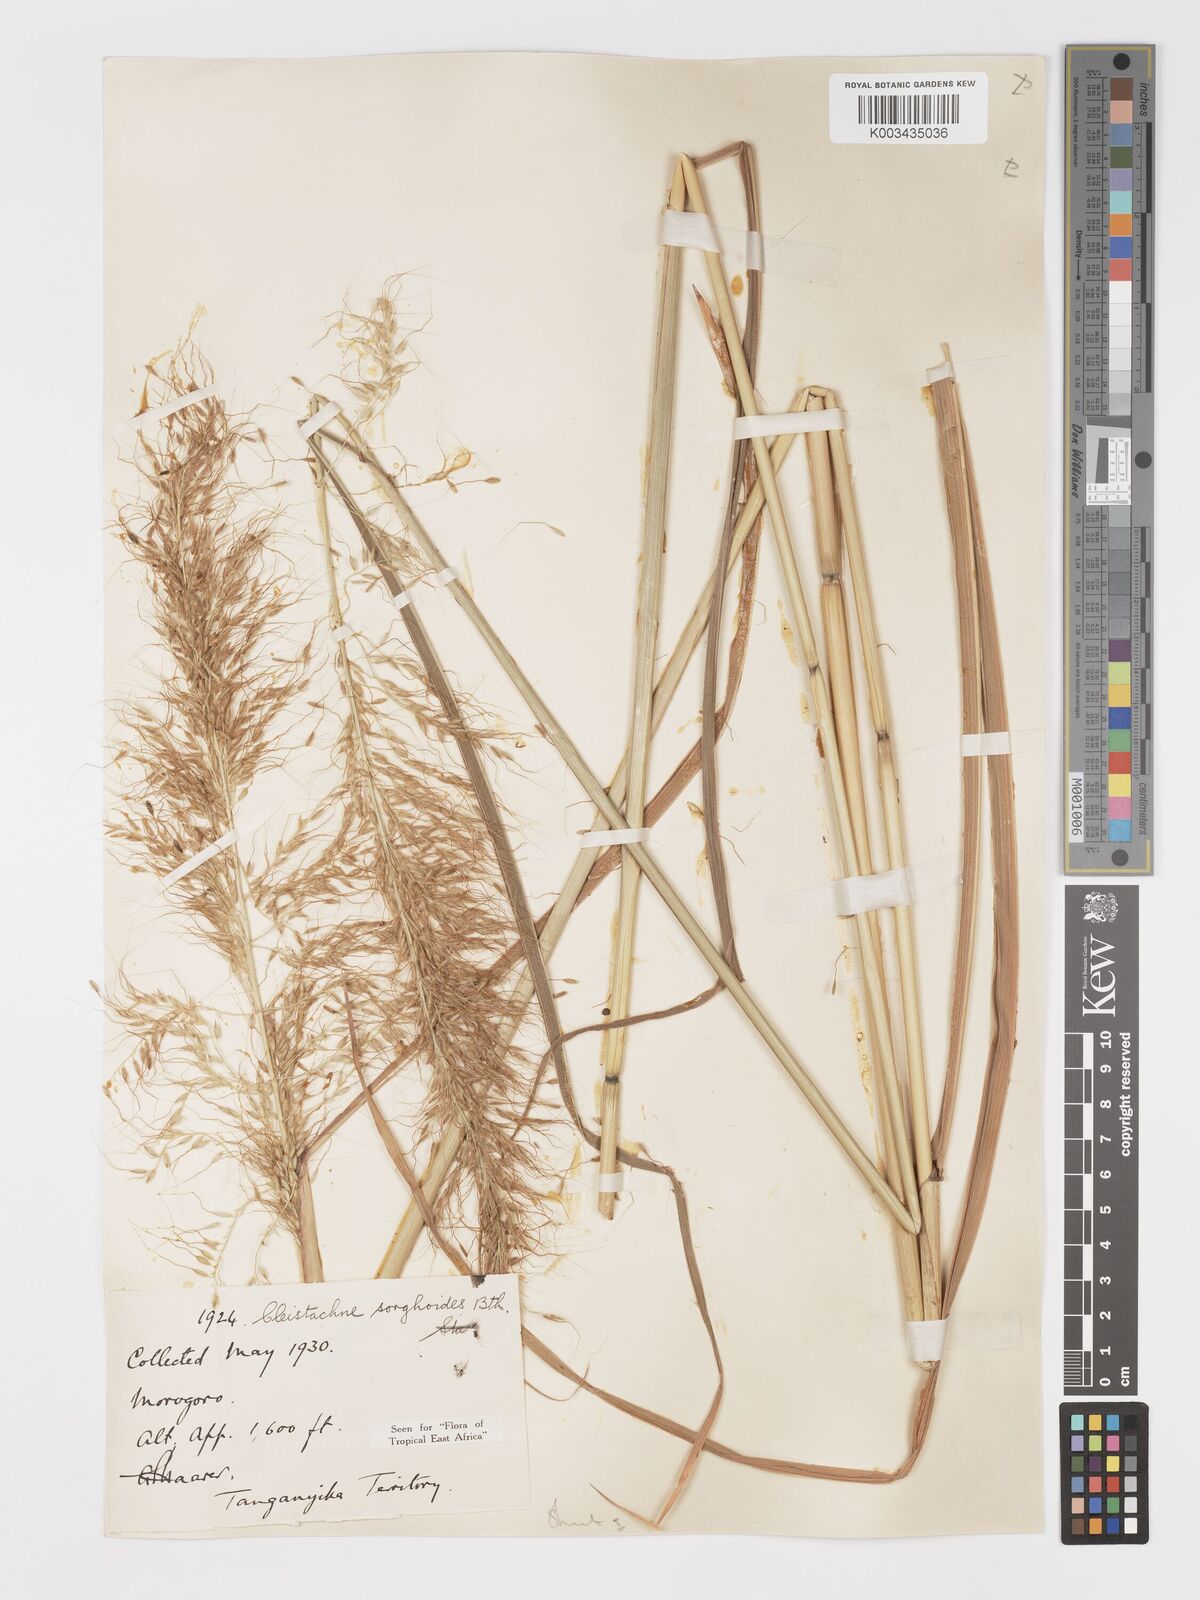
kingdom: Plantae
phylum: Tracheophyta
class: Liliopsida
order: Poales
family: Poaceae
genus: Cleistachne
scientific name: Cleistachne sorghoides
